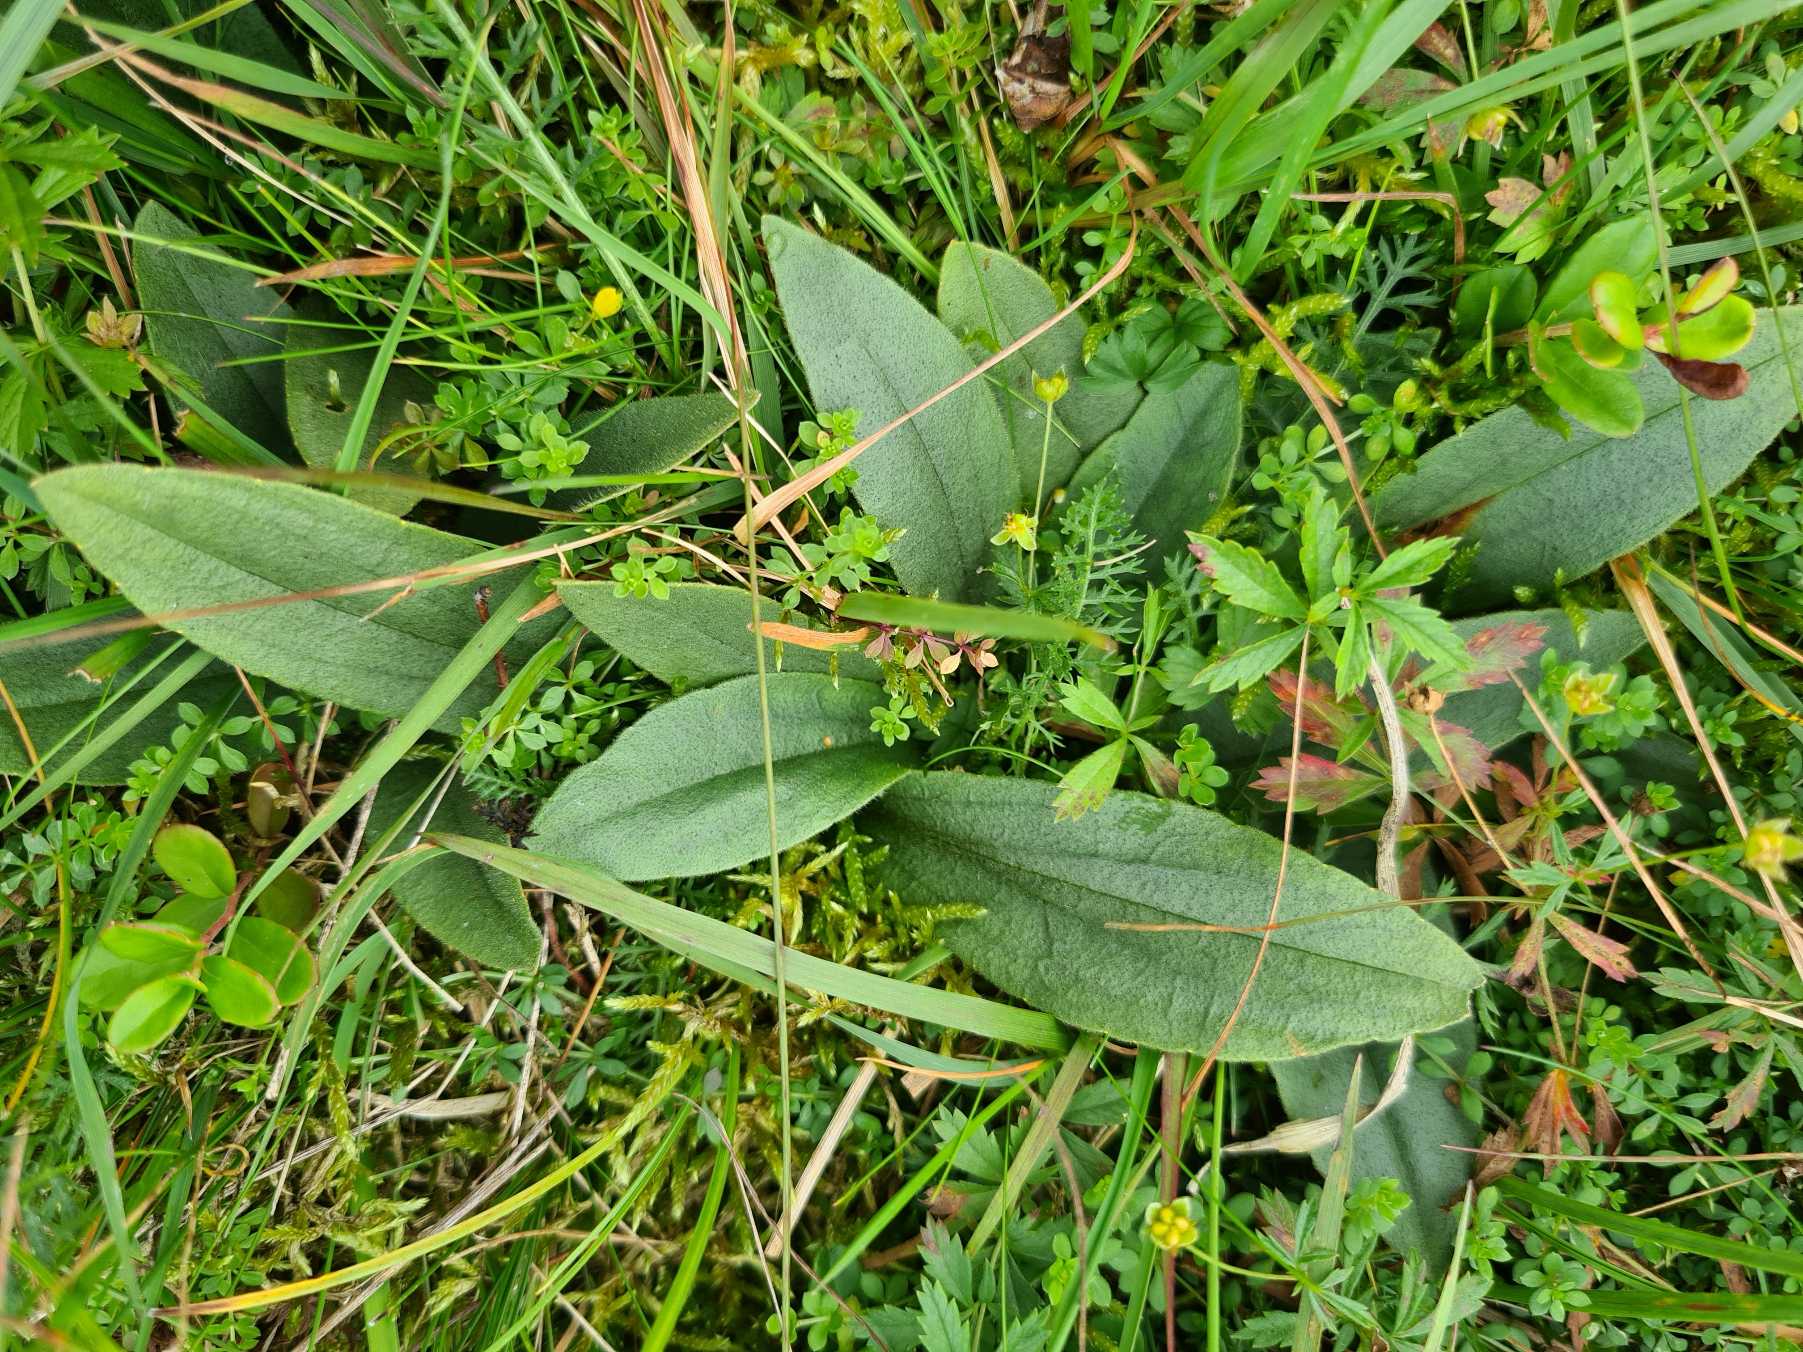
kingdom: Plantae
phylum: Tracheophyta
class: Magnoliopsida
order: Asterales
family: Asteraceae
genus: Arnica
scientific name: Arnica montana
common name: Guldblomme
